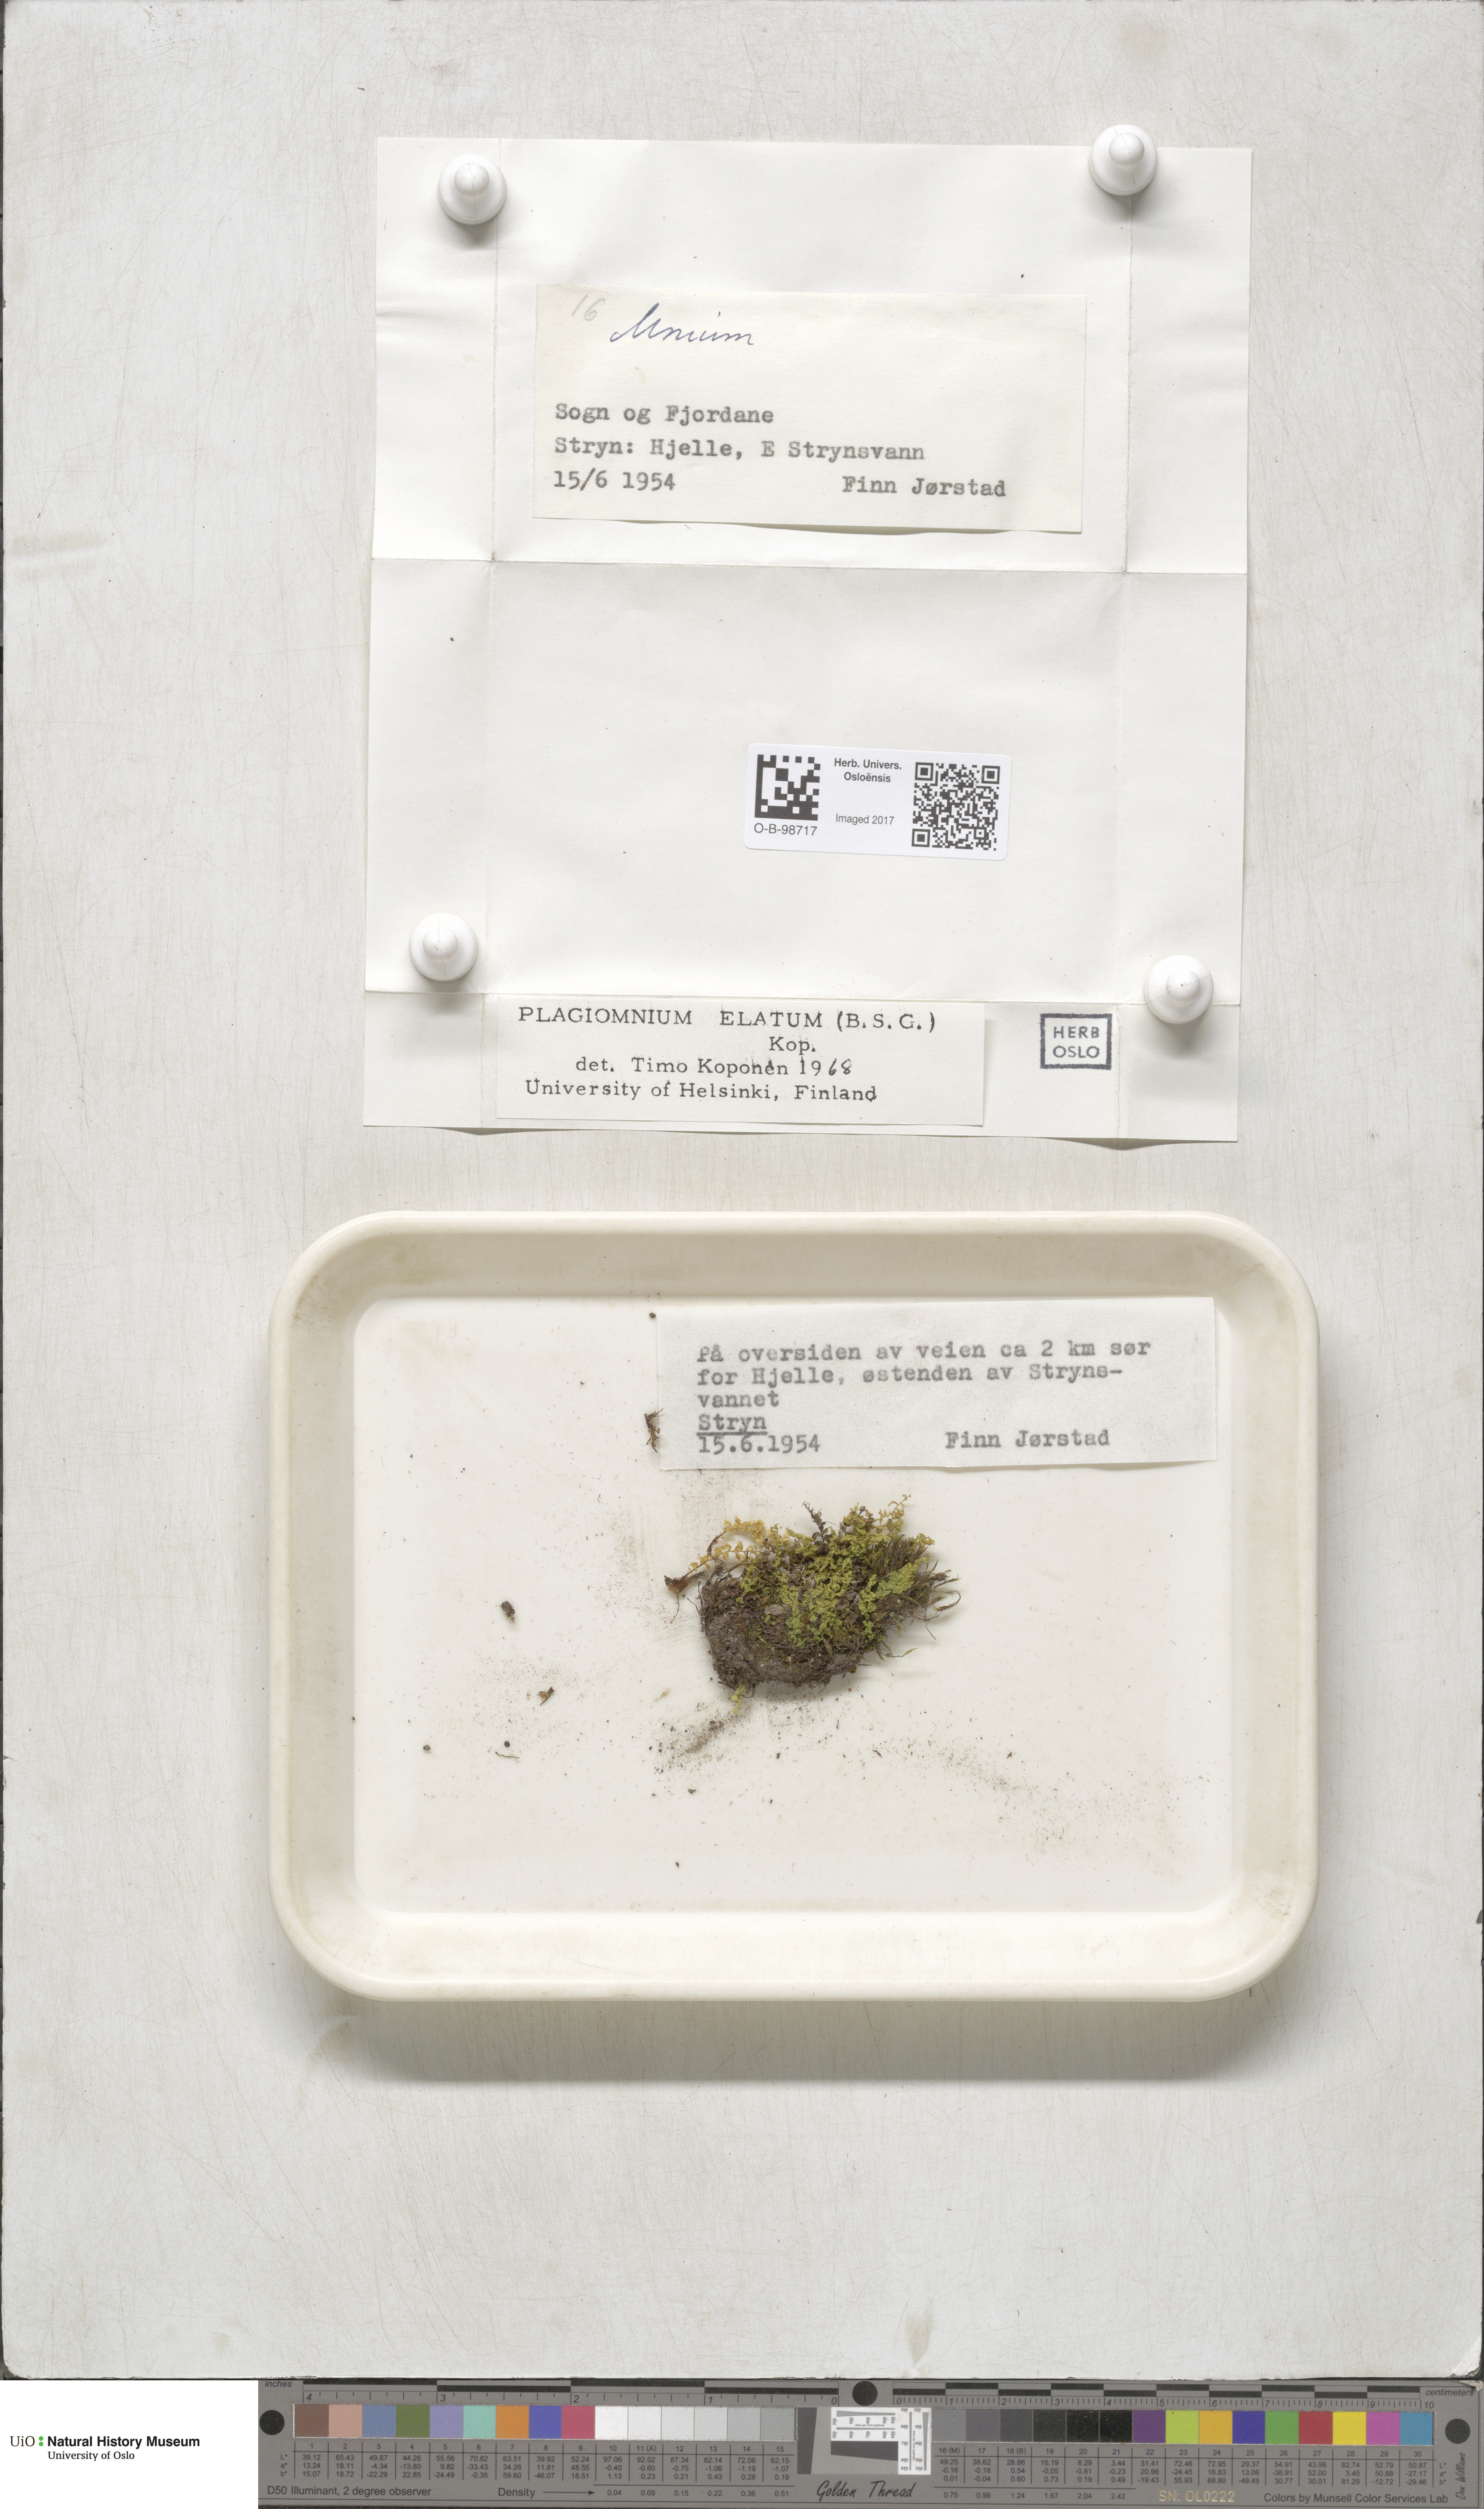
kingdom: Plantae
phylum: Bryophyta
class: Bryopsida
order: Bryales
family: Mniaceae
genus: Plagiomnium
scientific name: Plagiomnium elatum
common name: Tall thyme-moss
